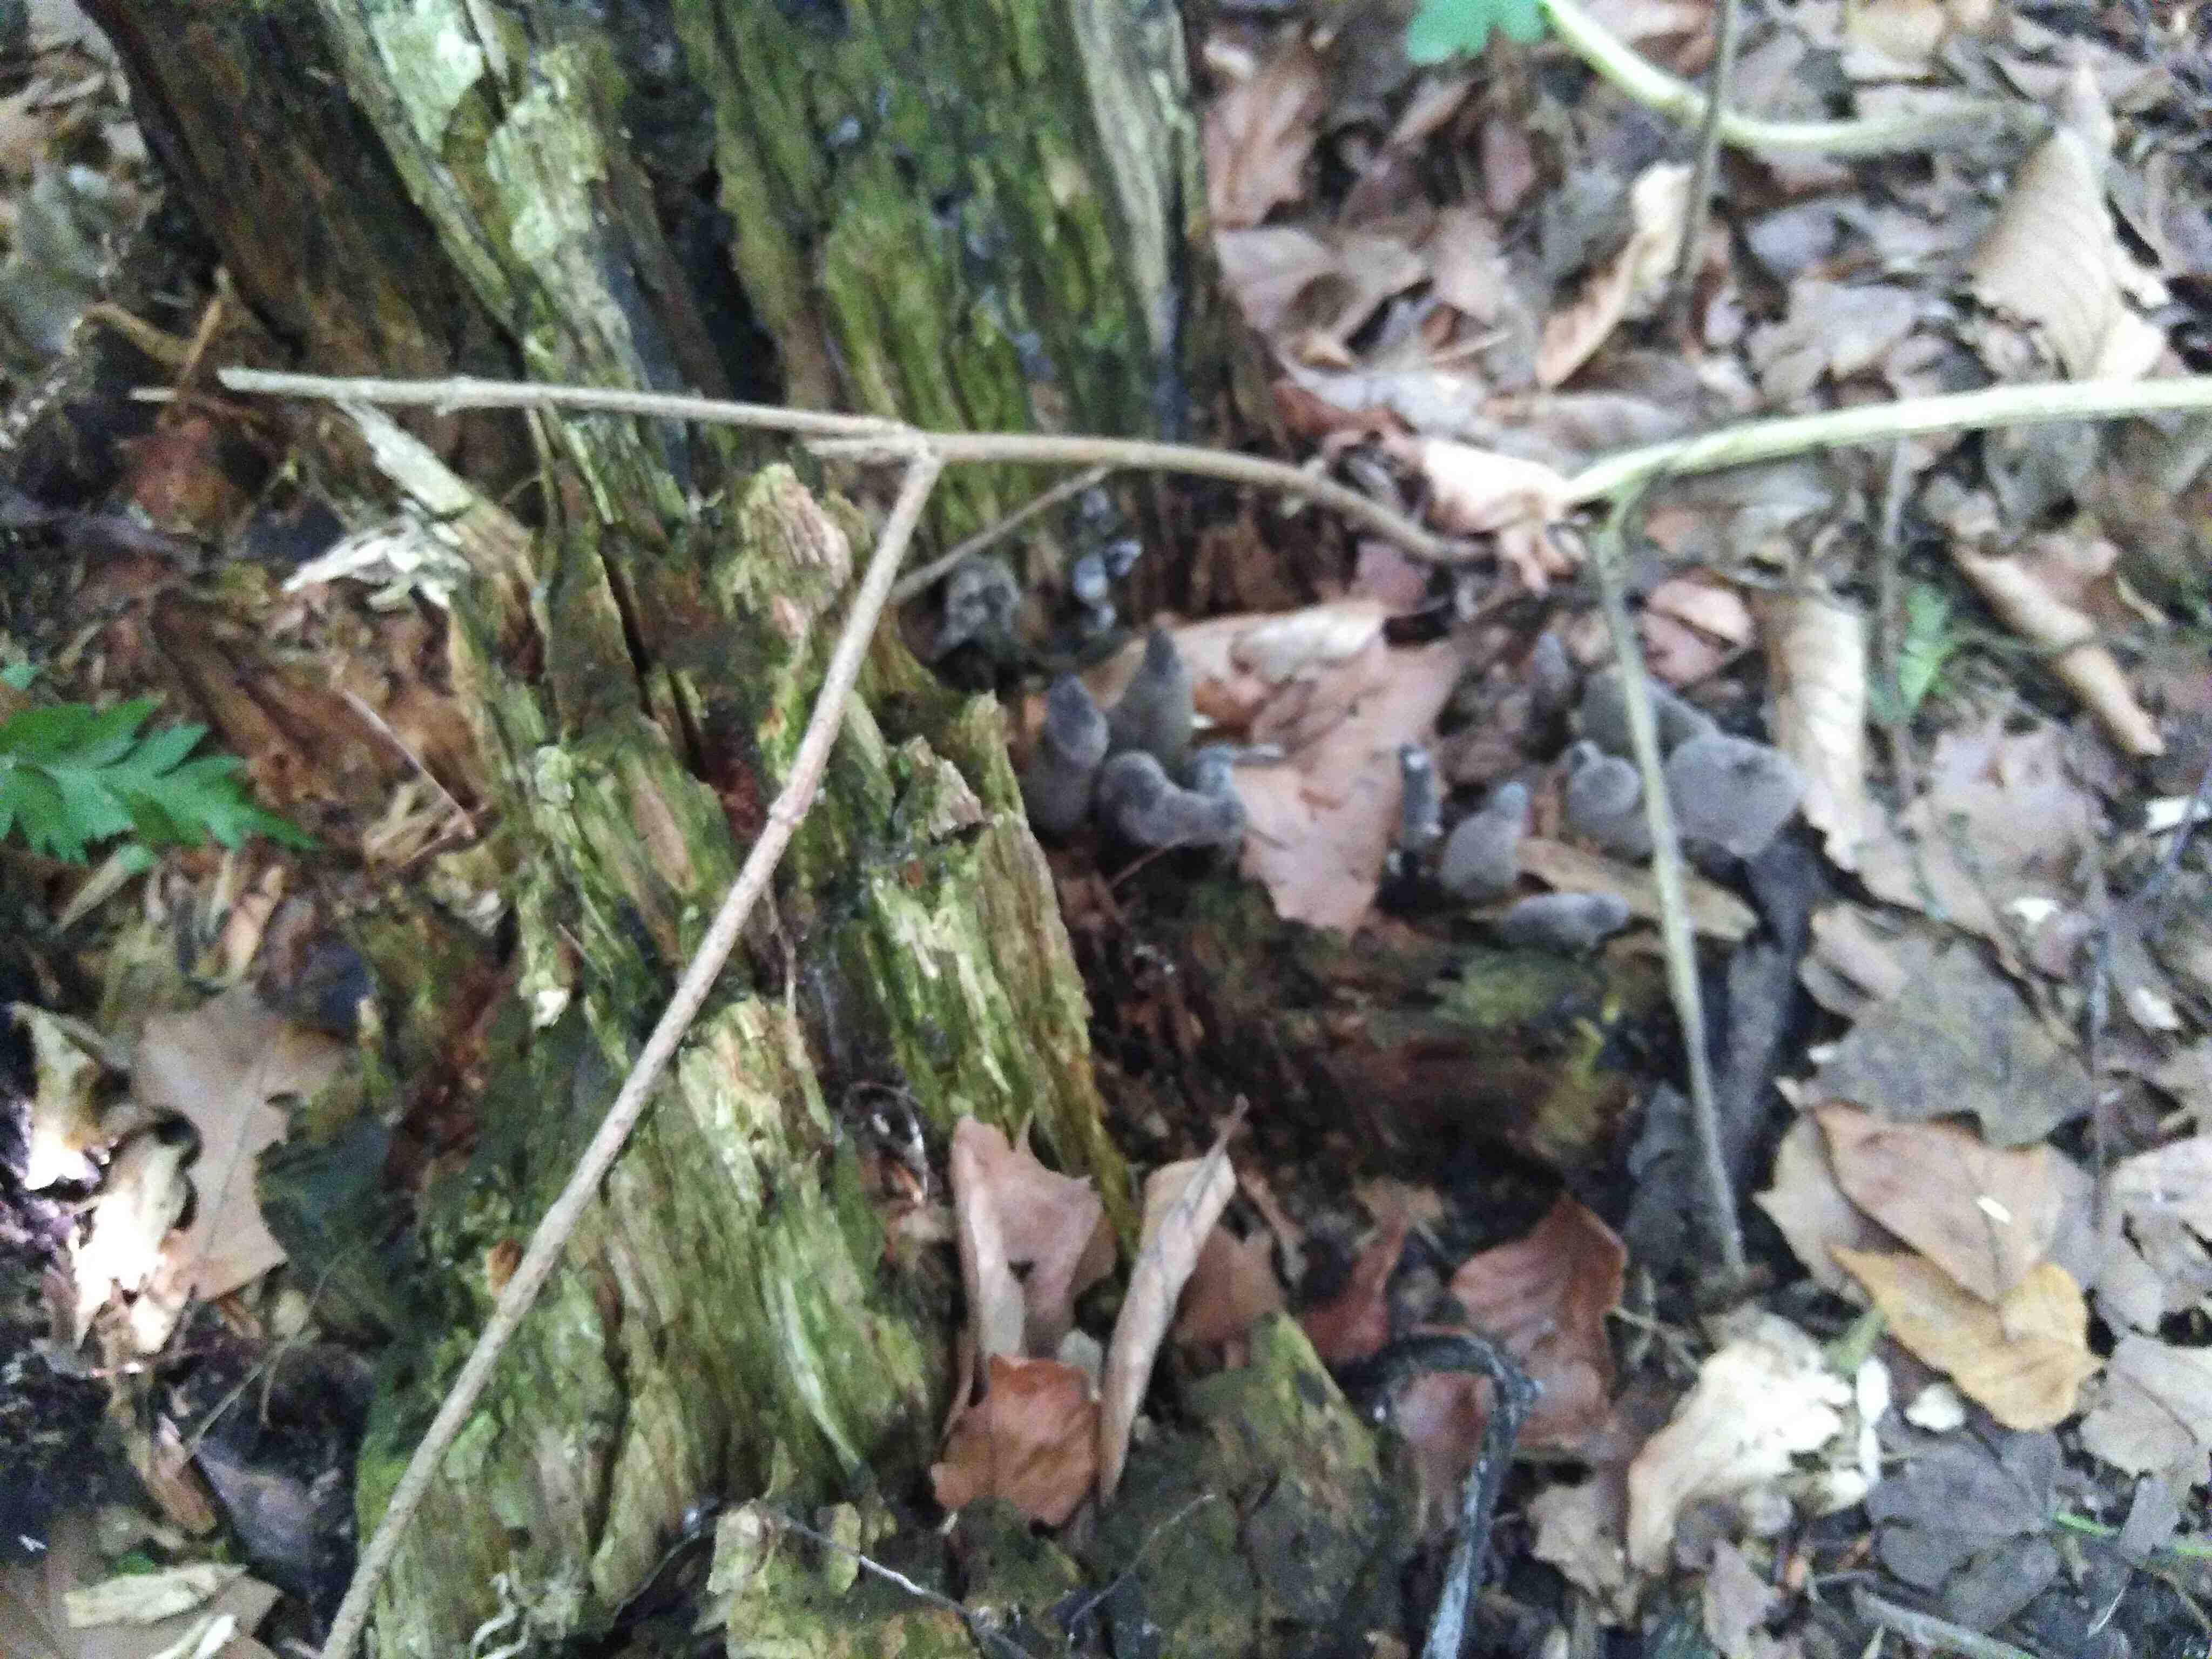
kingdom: Fungi
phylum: Ascomycota
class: Sordariomycetes
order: Xylariales
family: Xylariaceae
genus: Xylaria
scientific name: Xylaria polymorpha
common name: kølle-stødsvamp
